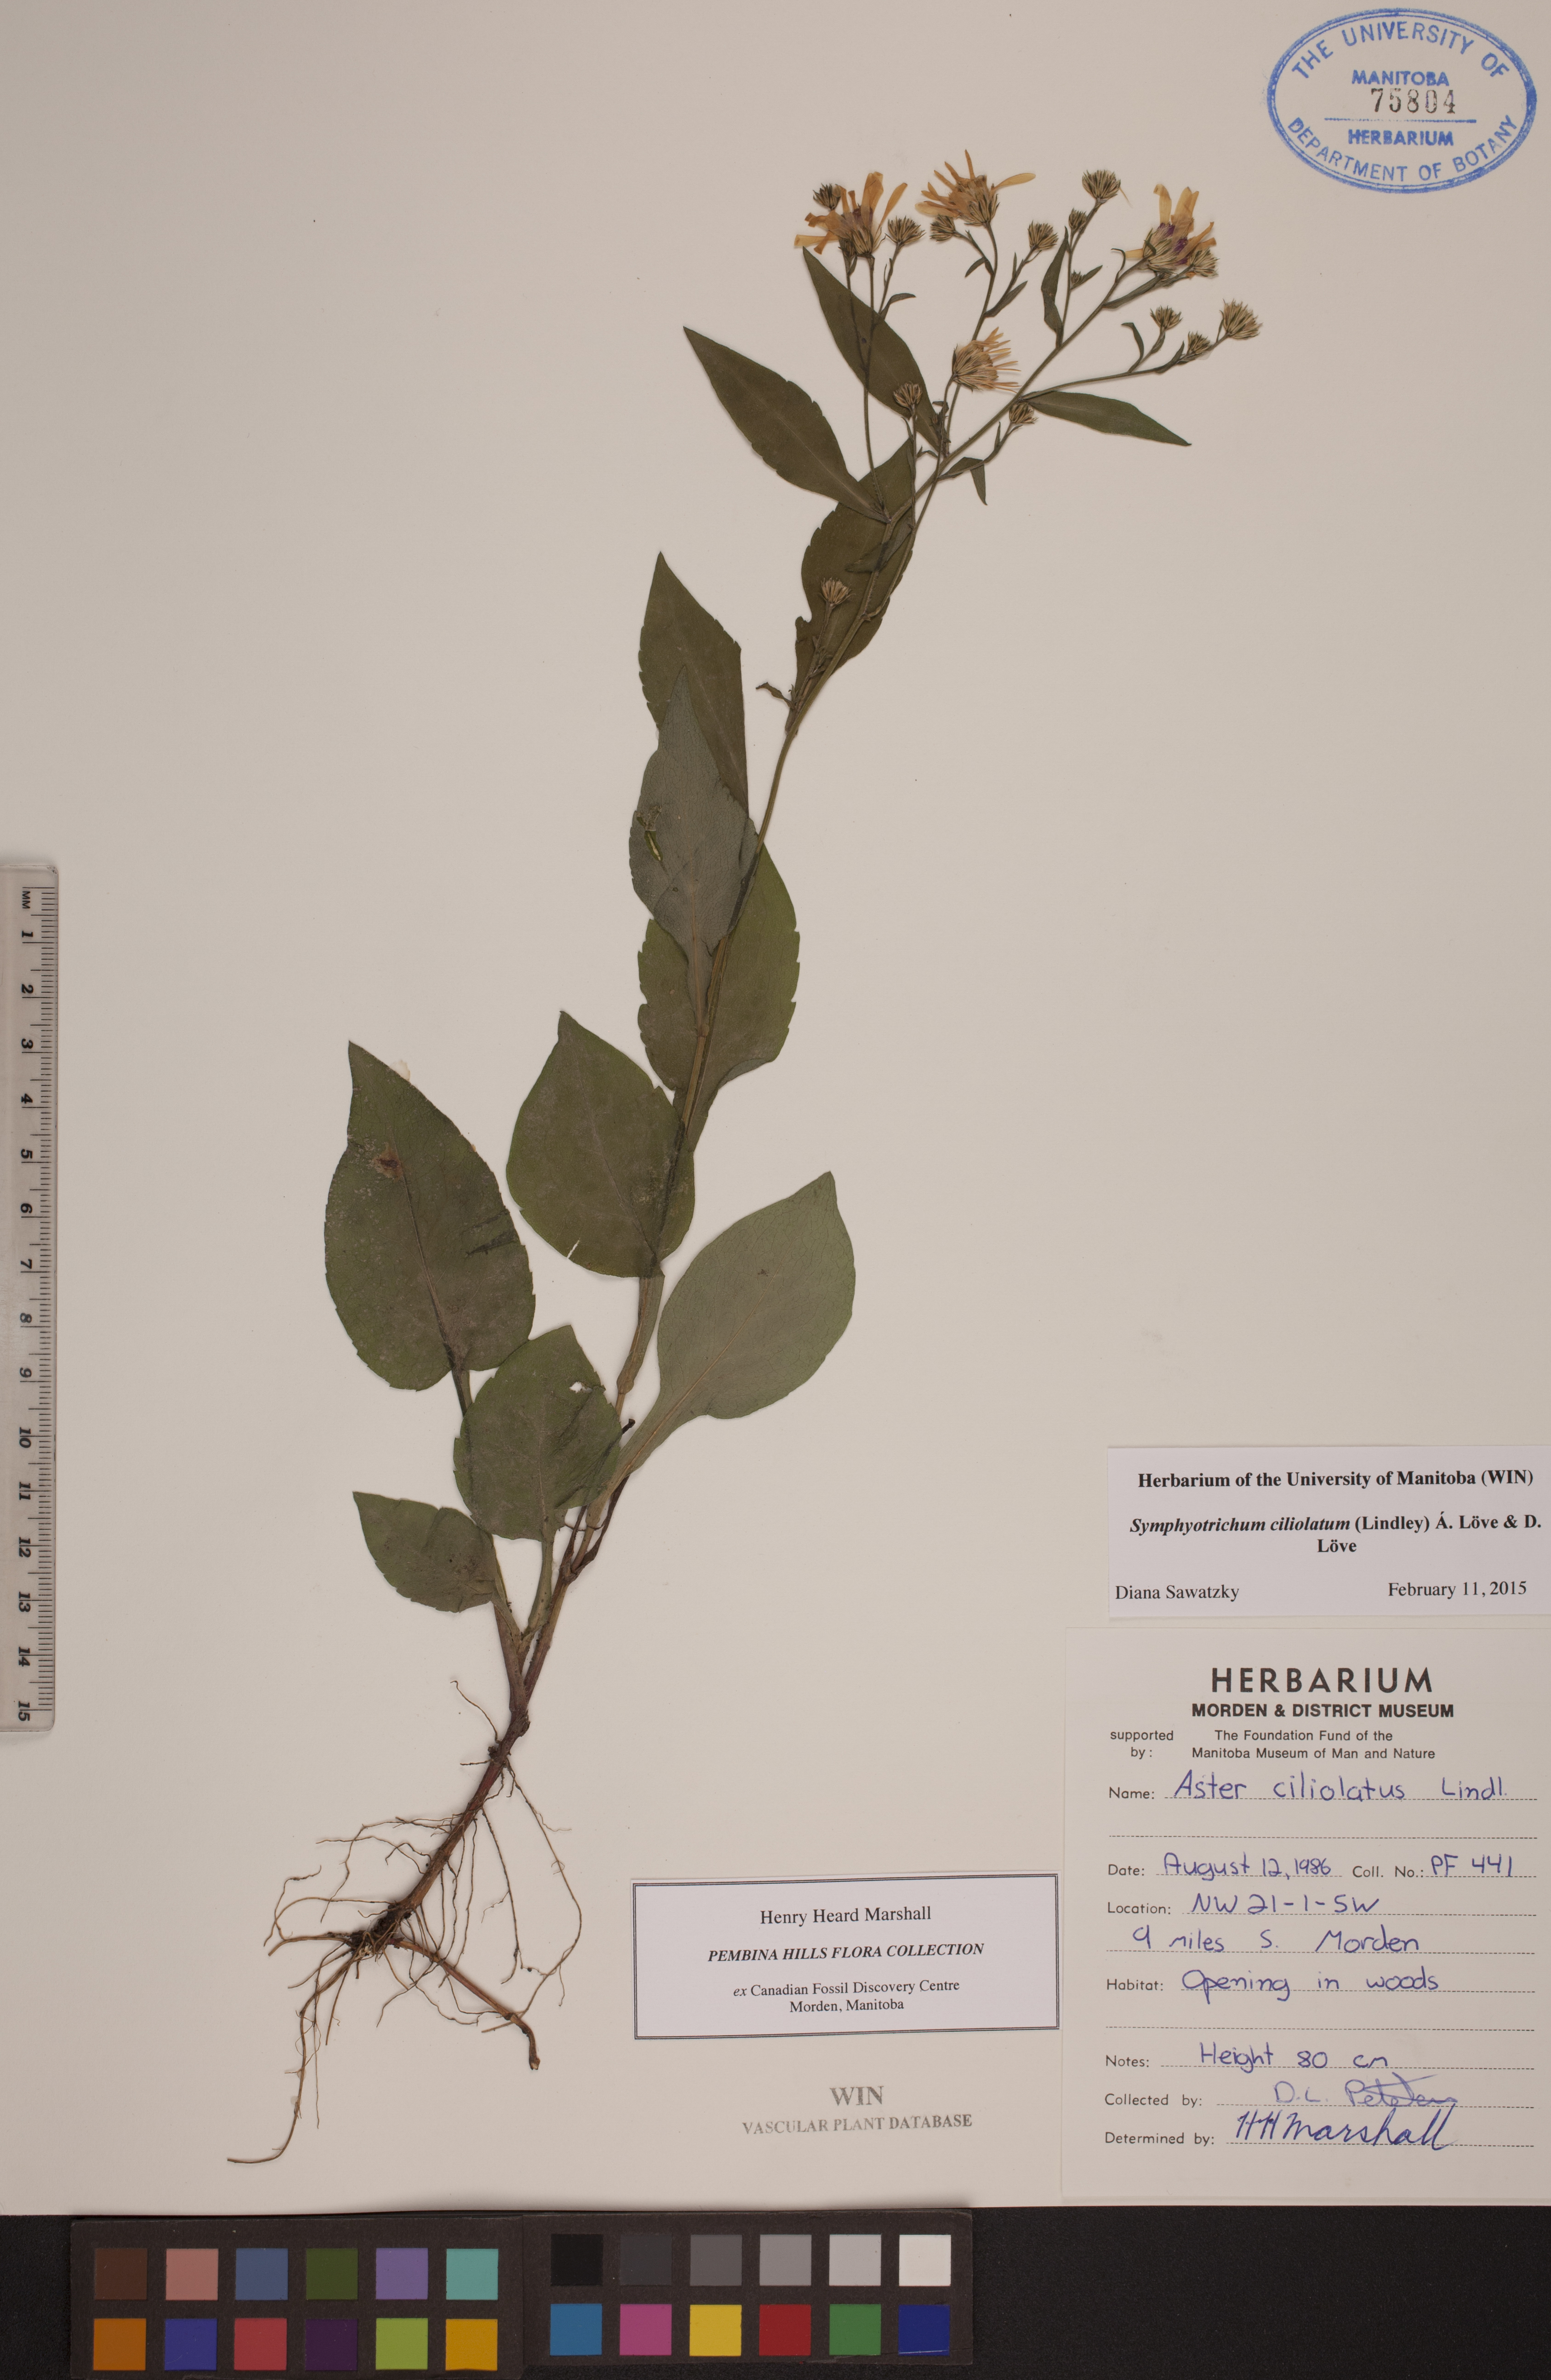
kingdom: Plantae
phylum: Tracheophyta
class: Magnoliopsida
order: Asterales
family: Asteraceae
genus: Symphyotrichum
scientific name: Symphyotrichum ciliolatum
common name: Fringed blue aster
